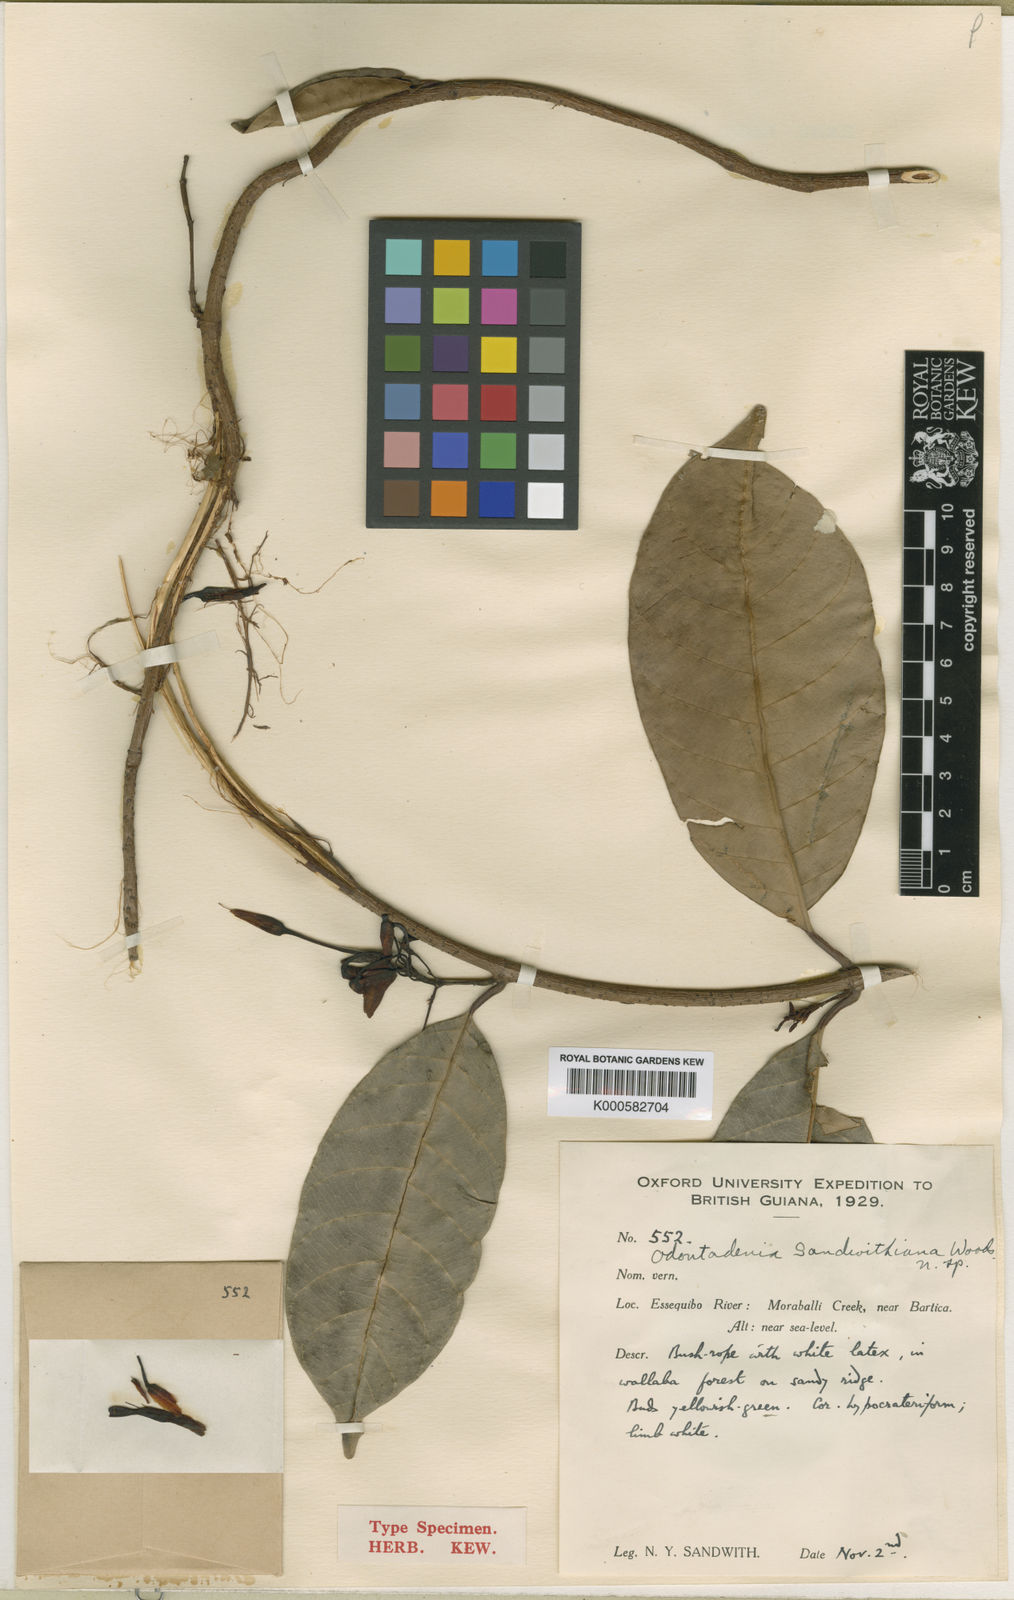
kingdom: Plantae
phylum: Tracheophyta
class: Magnoliopsida
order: Gentianales
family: Apocynaceae
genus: Odontadenia
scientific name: Odontadenia kochii
